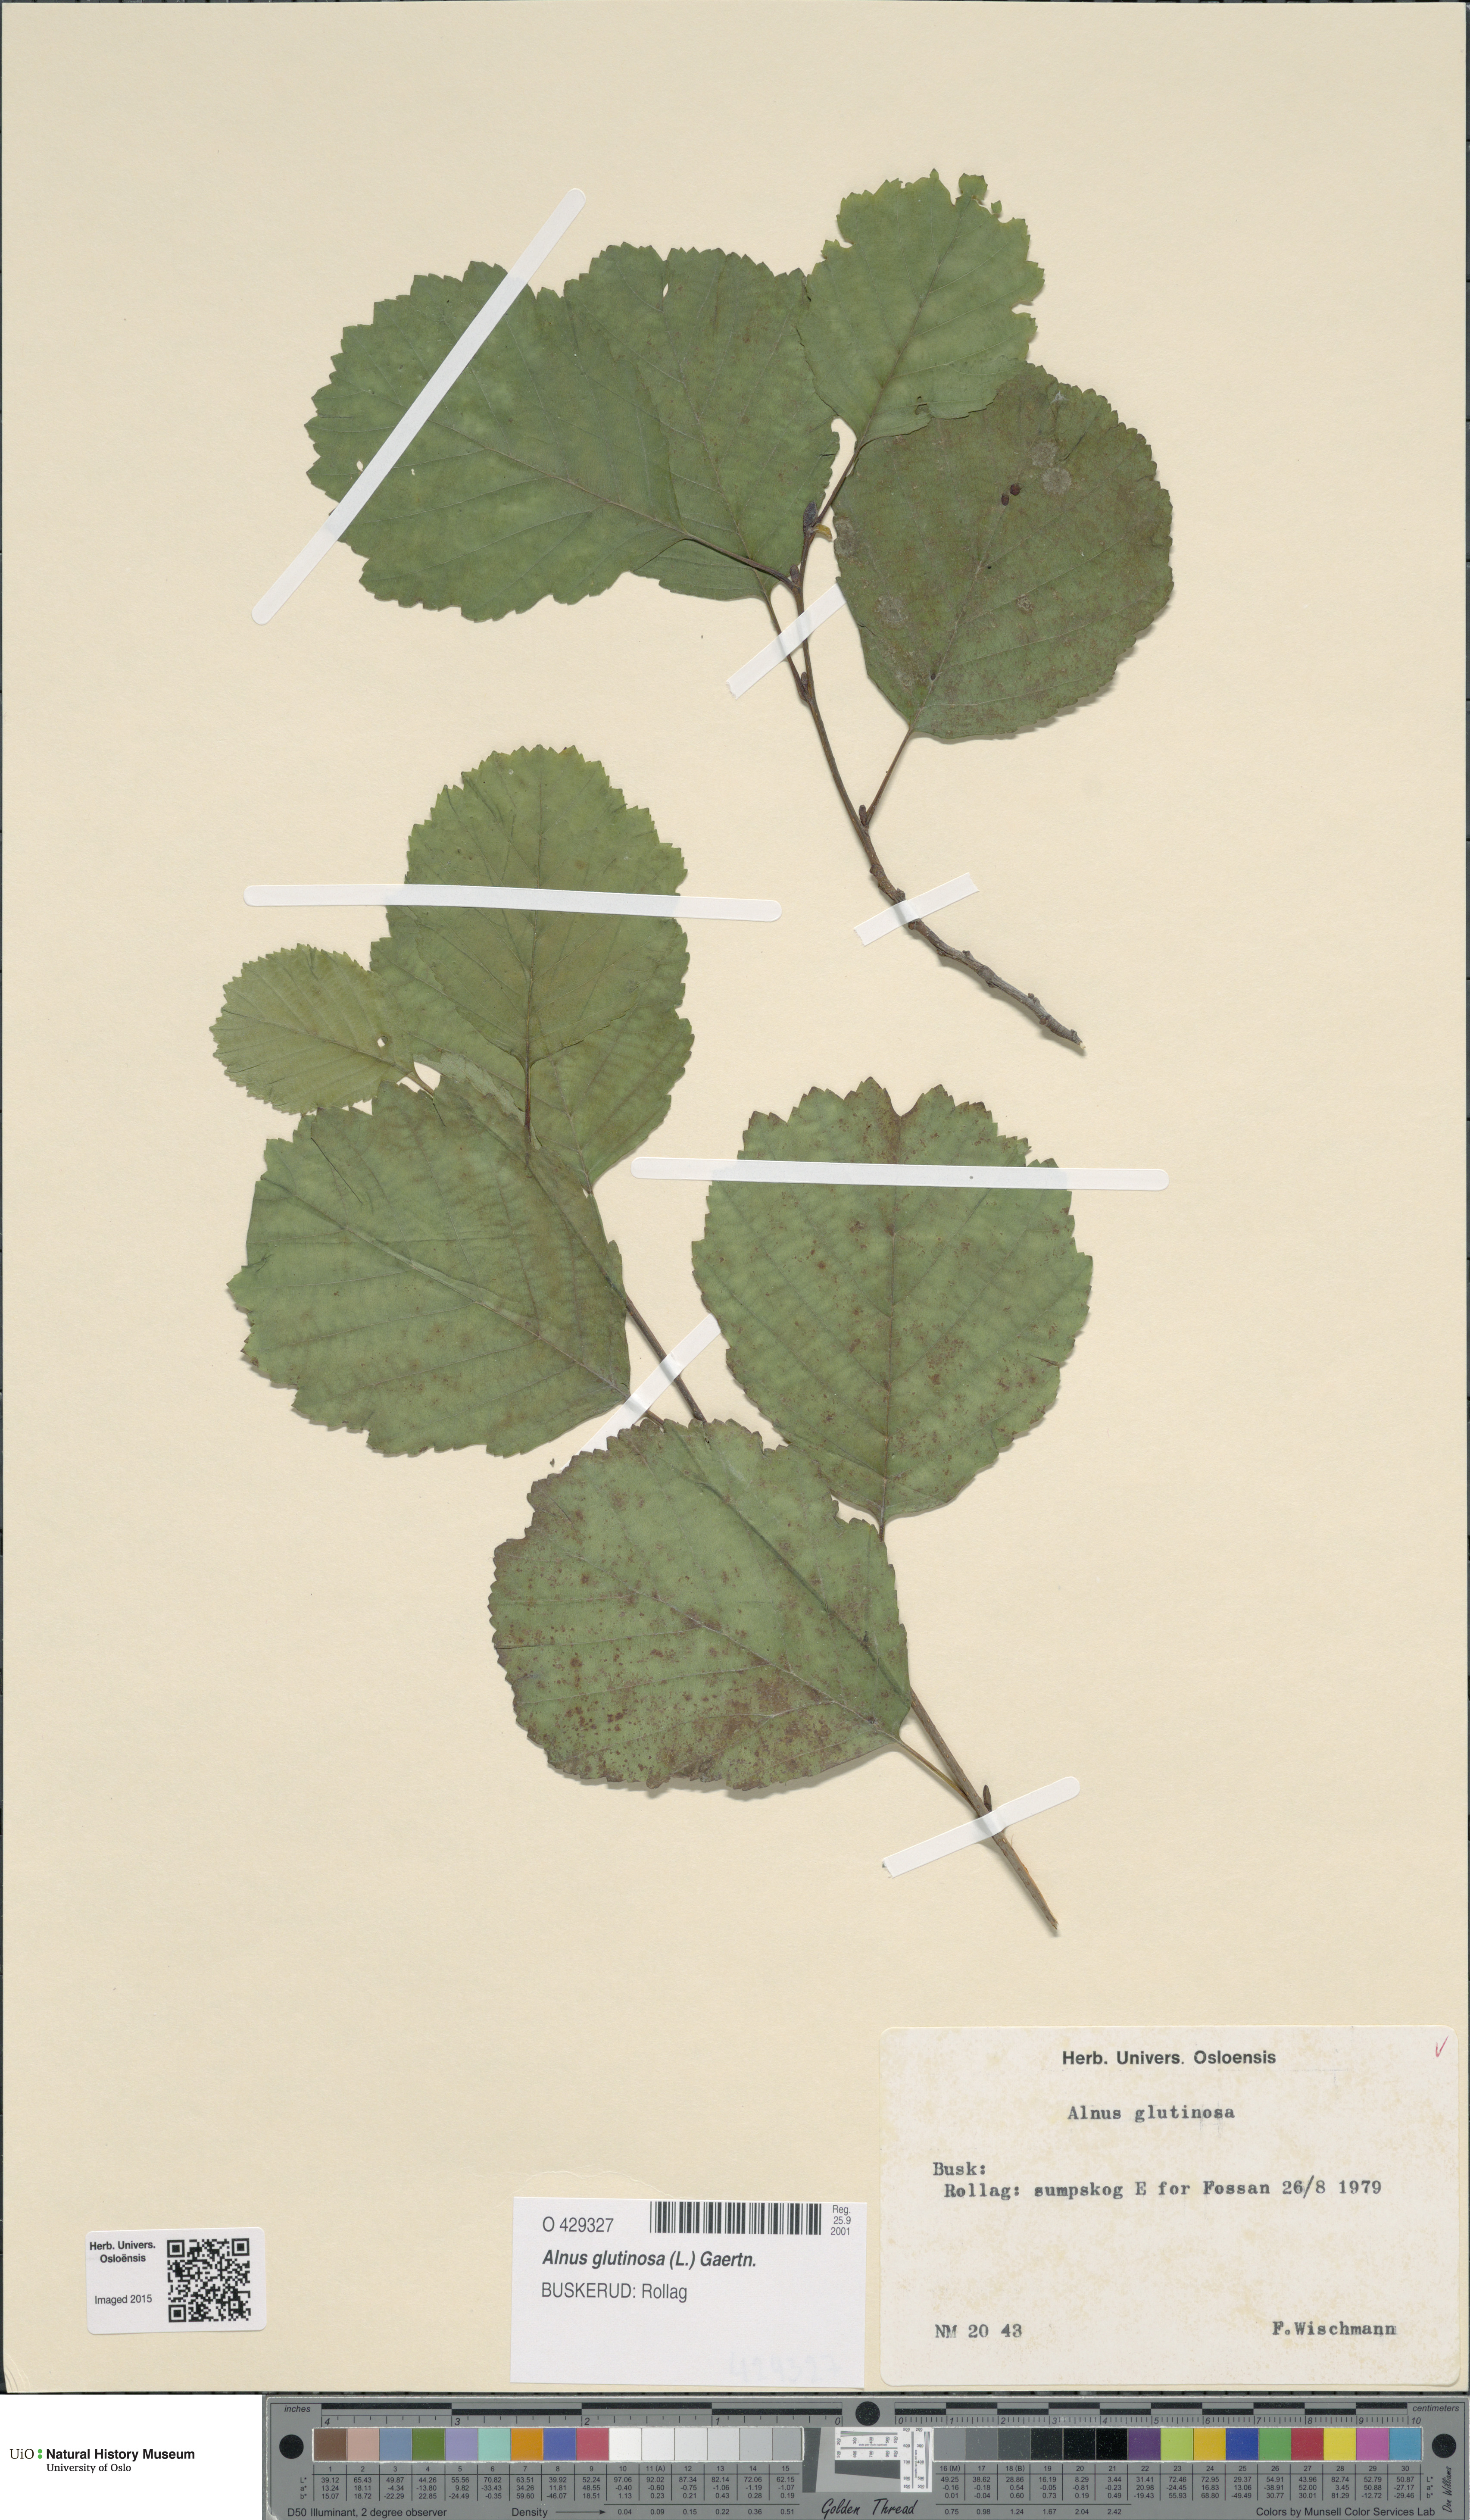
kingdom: Plantae
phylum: Tracheophyta
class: Magnoliopsida
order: Fagales
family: Betulaceae
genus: Alnus
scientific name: Alnus glutinosa
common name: Black alder
